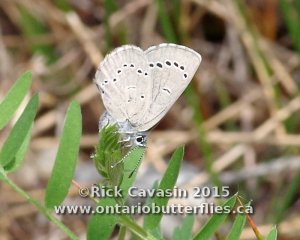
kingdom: Animalia
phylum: Arthropoda
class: Insecta
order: Lepidoptera
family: Lycaenidae
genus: Glaucopsyche
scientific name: Glaucopsyche lygdamus
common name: Silvery Blue
